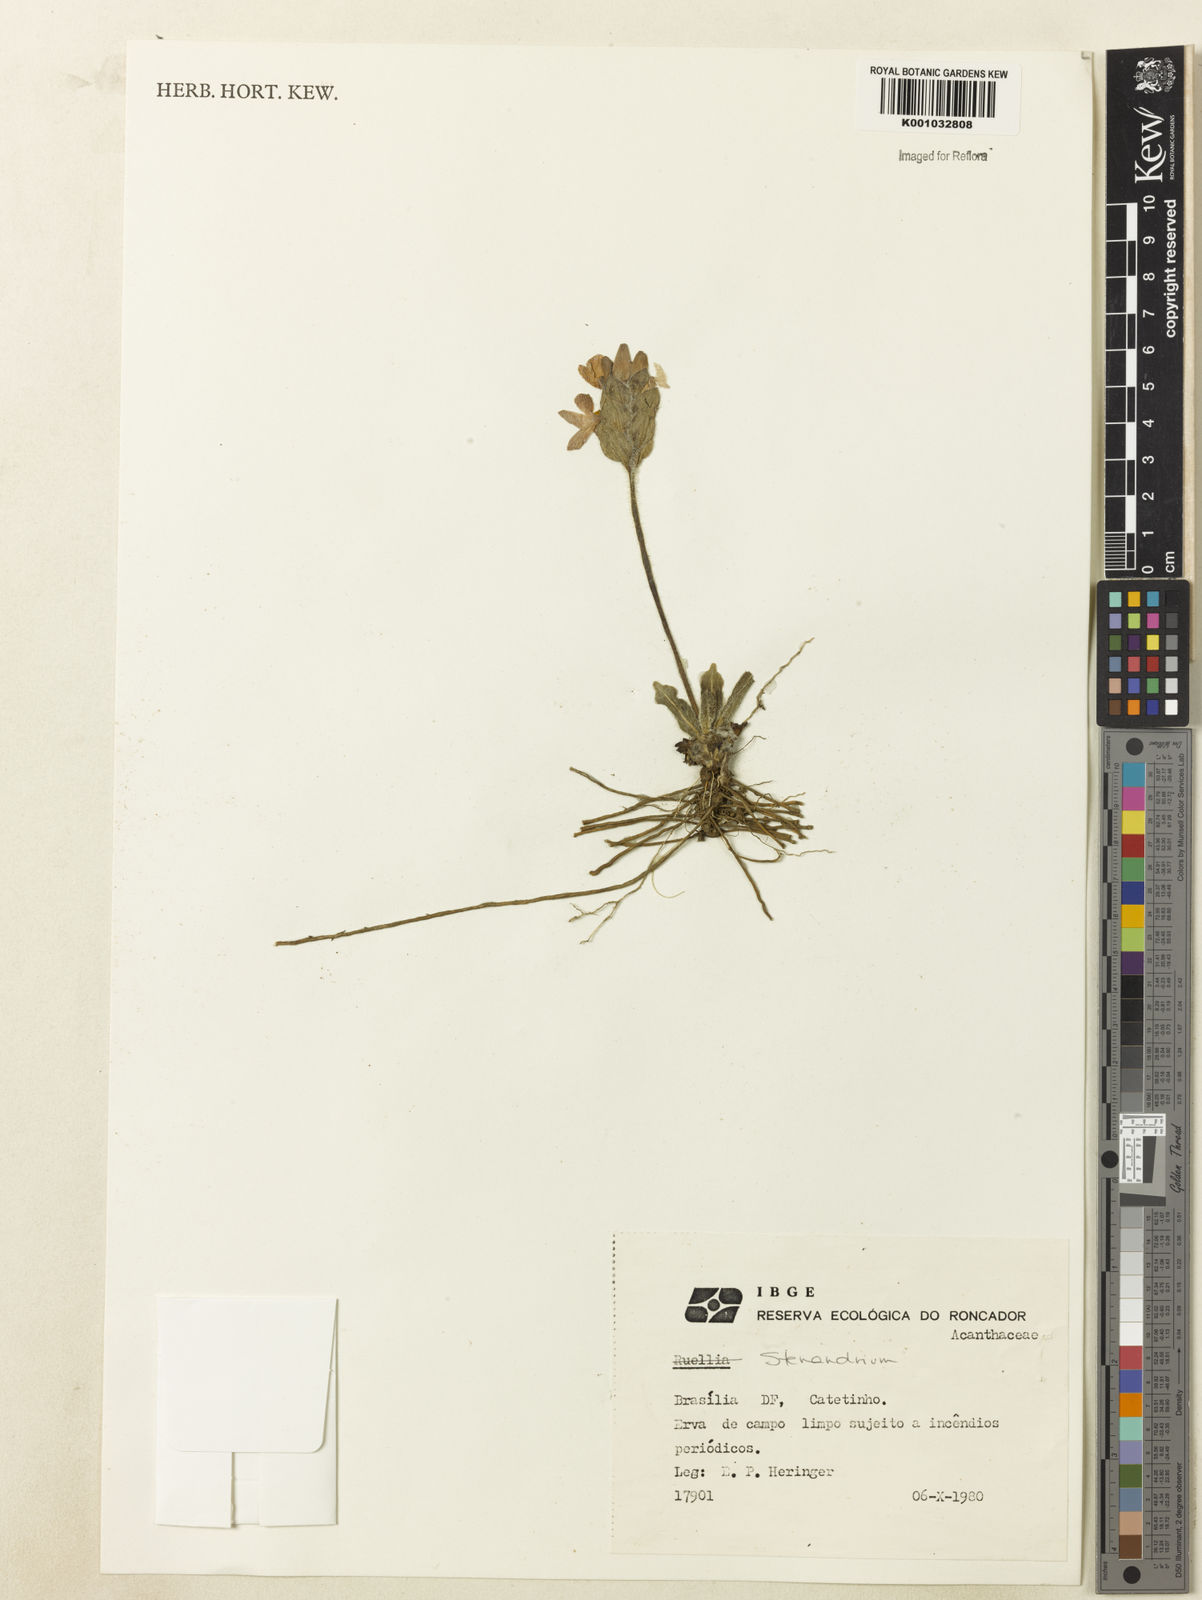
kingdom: Plantae
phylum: Tracheophyta
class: Magnoliopsida
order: Lamiales
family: Acanthaceae
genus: Stenandrium
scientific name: Stenandrium pohlii
